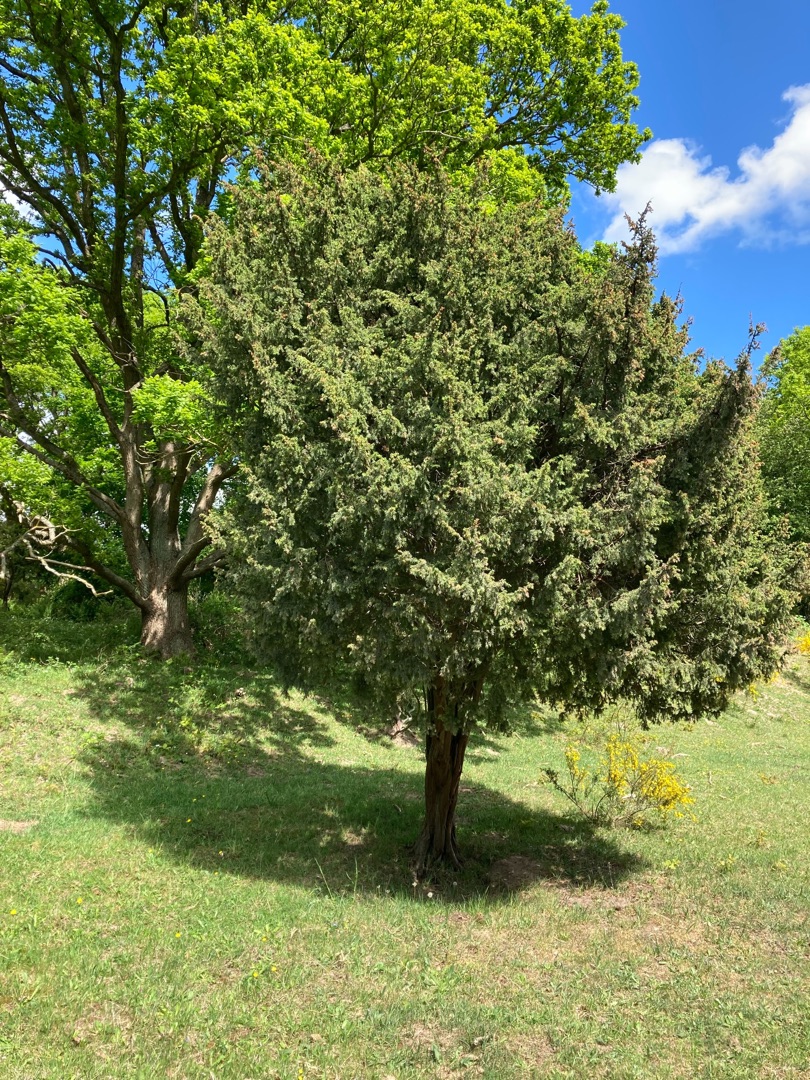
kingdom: Plantae
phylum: Tracheophyta
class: Pinopsida
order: Pinales
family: Cupressaceae
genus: Juniperus
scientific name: Juniperus communis
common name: Almindelig ene
